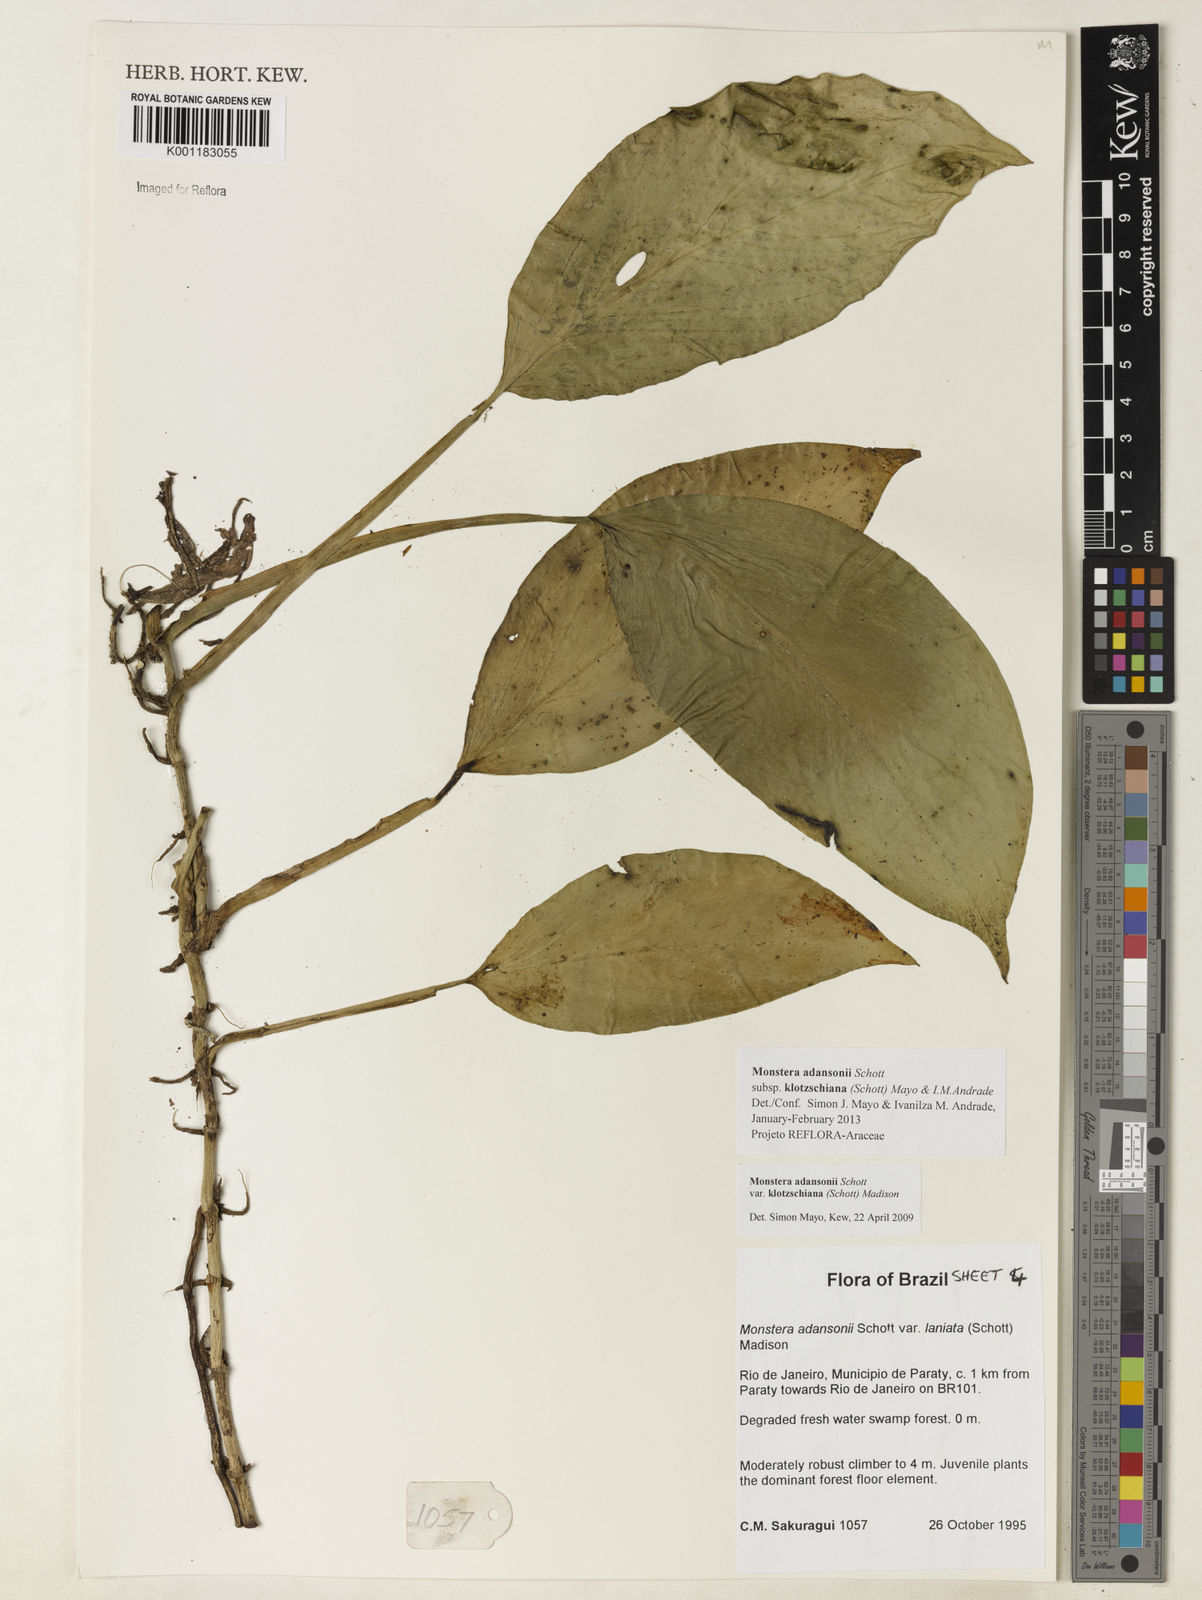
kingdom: Plantae
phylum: Tracheophyta
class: Liliopsida
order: Alismatales
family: Araceae
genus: Monstera
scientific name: Monstera adansonii
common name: Tarovine
